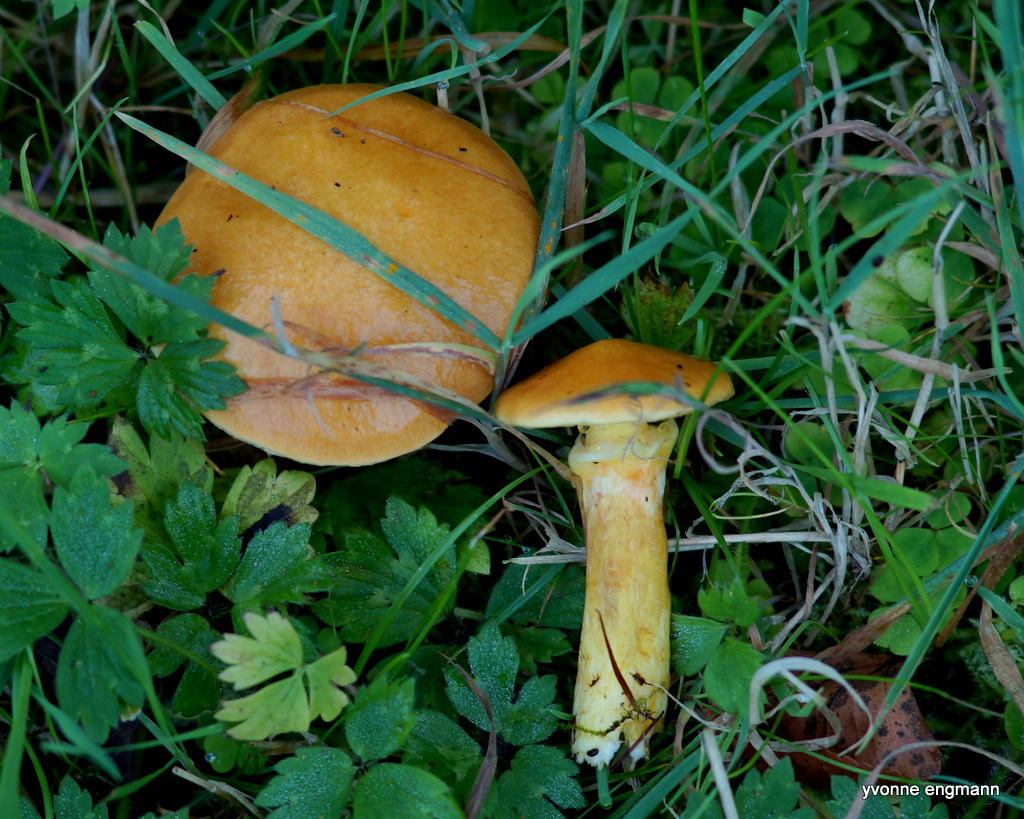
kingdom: Fungi
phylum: Basidiomycota
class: Agaricomycetes
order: Boletales
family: Suillaceae
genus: Suillus
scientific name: Suillus grevillei
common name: lærke-slimrørhat
